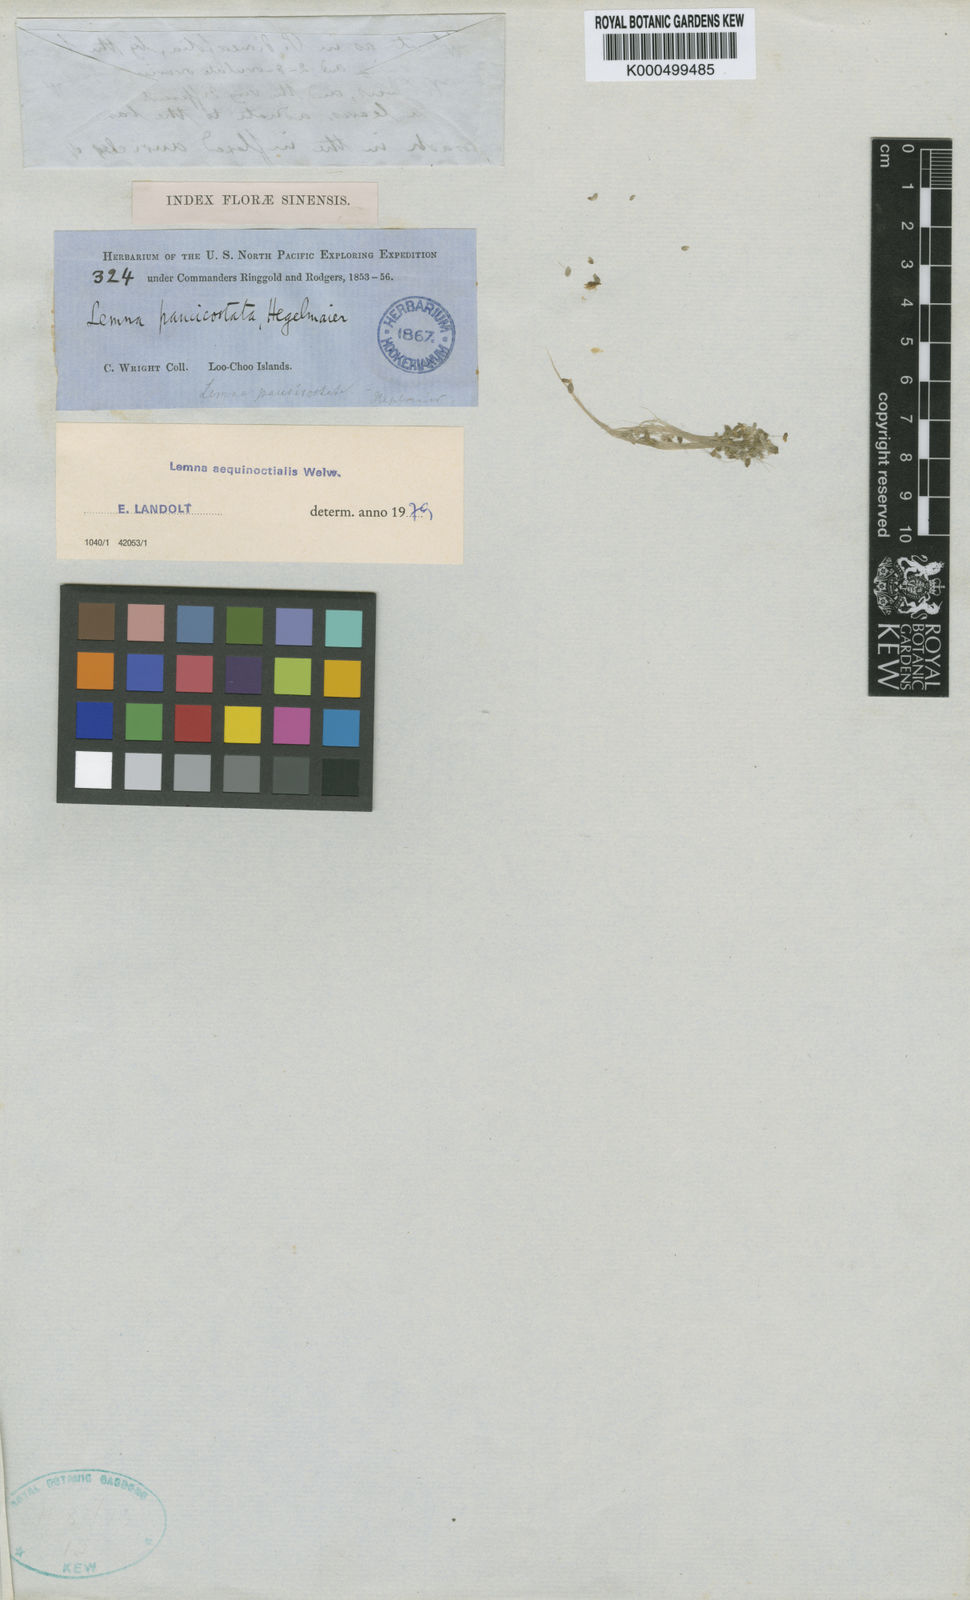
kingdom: Plantae
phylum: Tracheophyta
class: Liliopsida
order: Alismatales
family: Araceae
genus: Lemna
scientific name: Lemna aequinoctialis
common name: Duckweed
